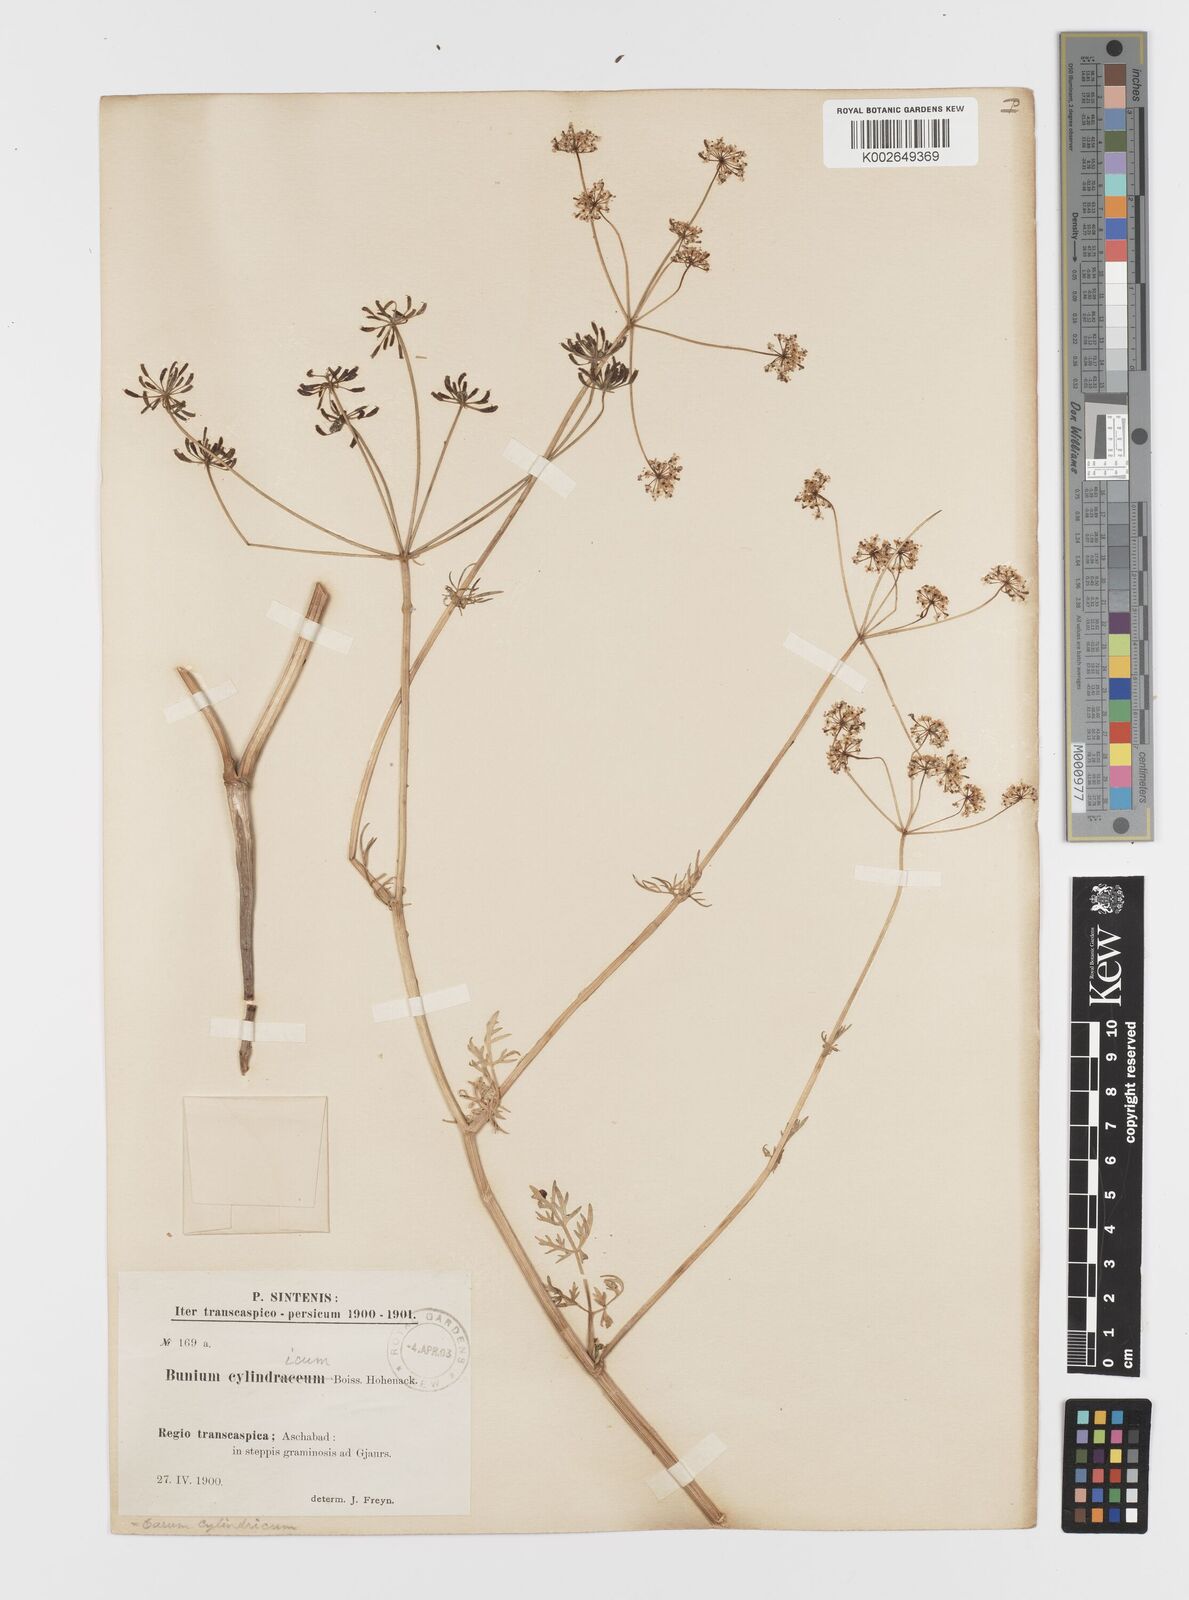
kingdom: Plantae
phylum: Tracheophyta
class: Magnoliopsida
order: Apiales
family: Apiaceae
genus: Elwendia
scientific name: Elwendia cylindrica
